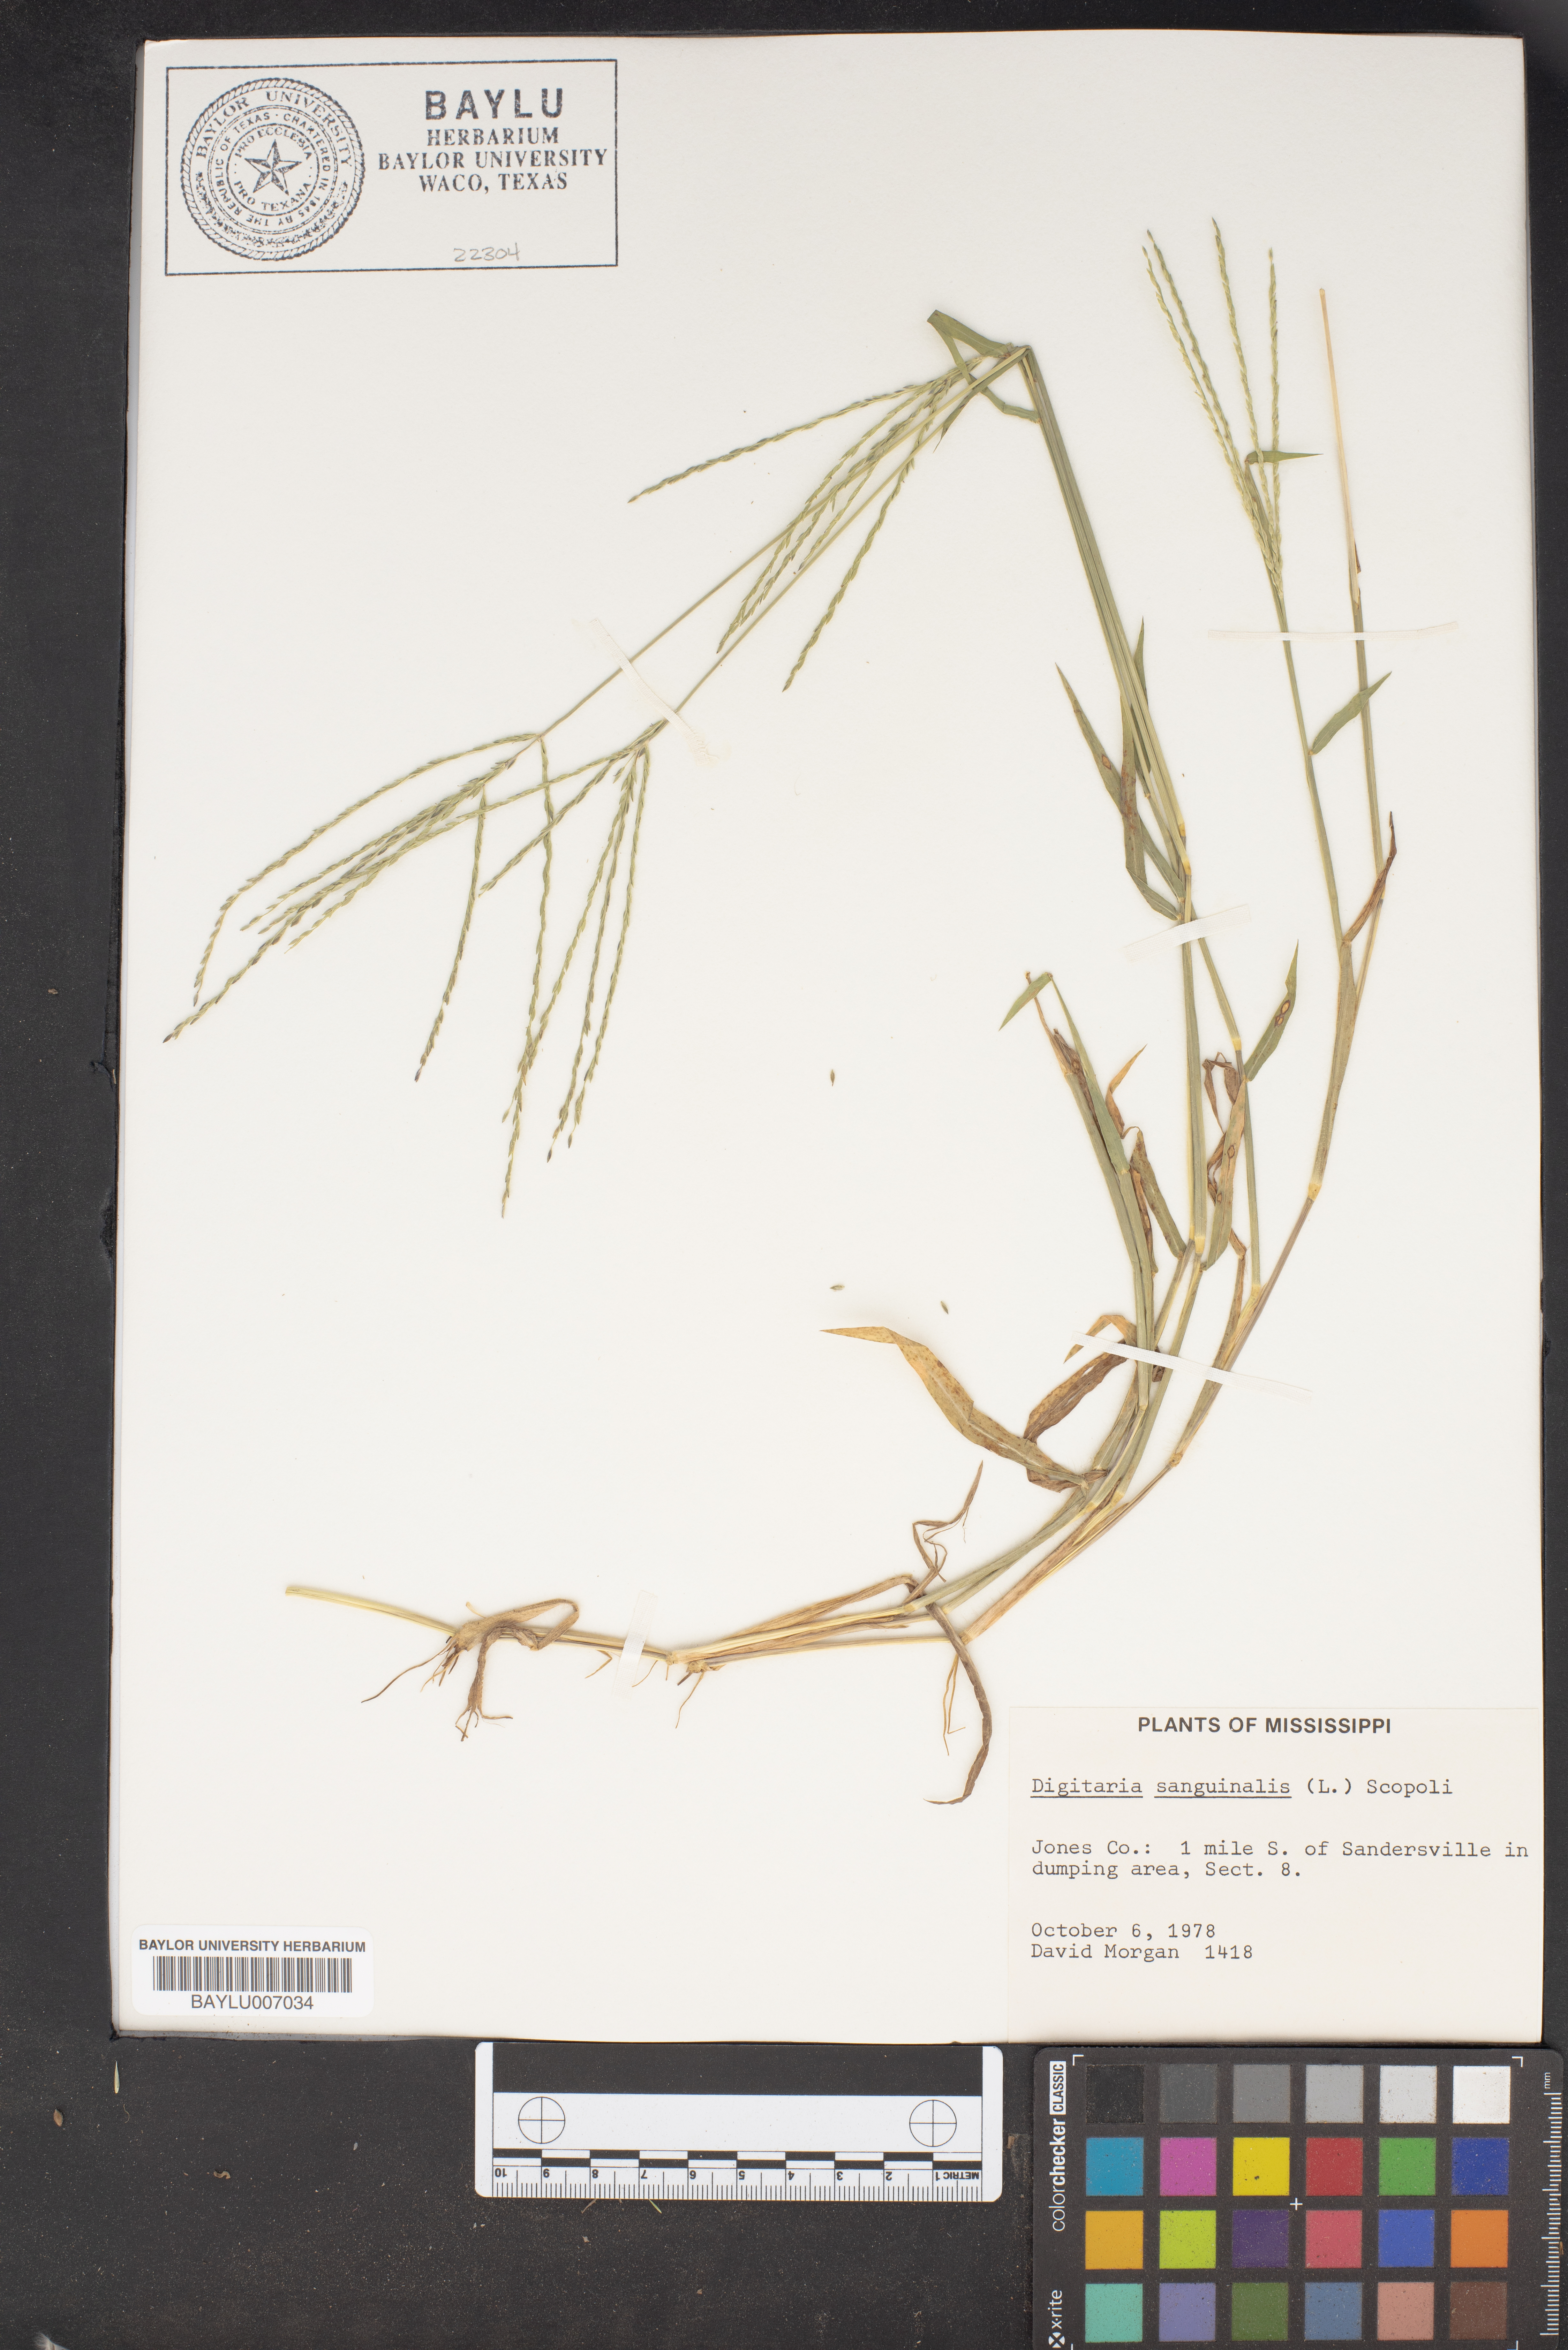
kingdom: Plantae
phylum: Tracheophyta
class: Liliopsida
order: Poales
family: Poaceae
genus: Digitaria
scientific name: Digitaria sanguinalis
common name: Hairy crabgrass
